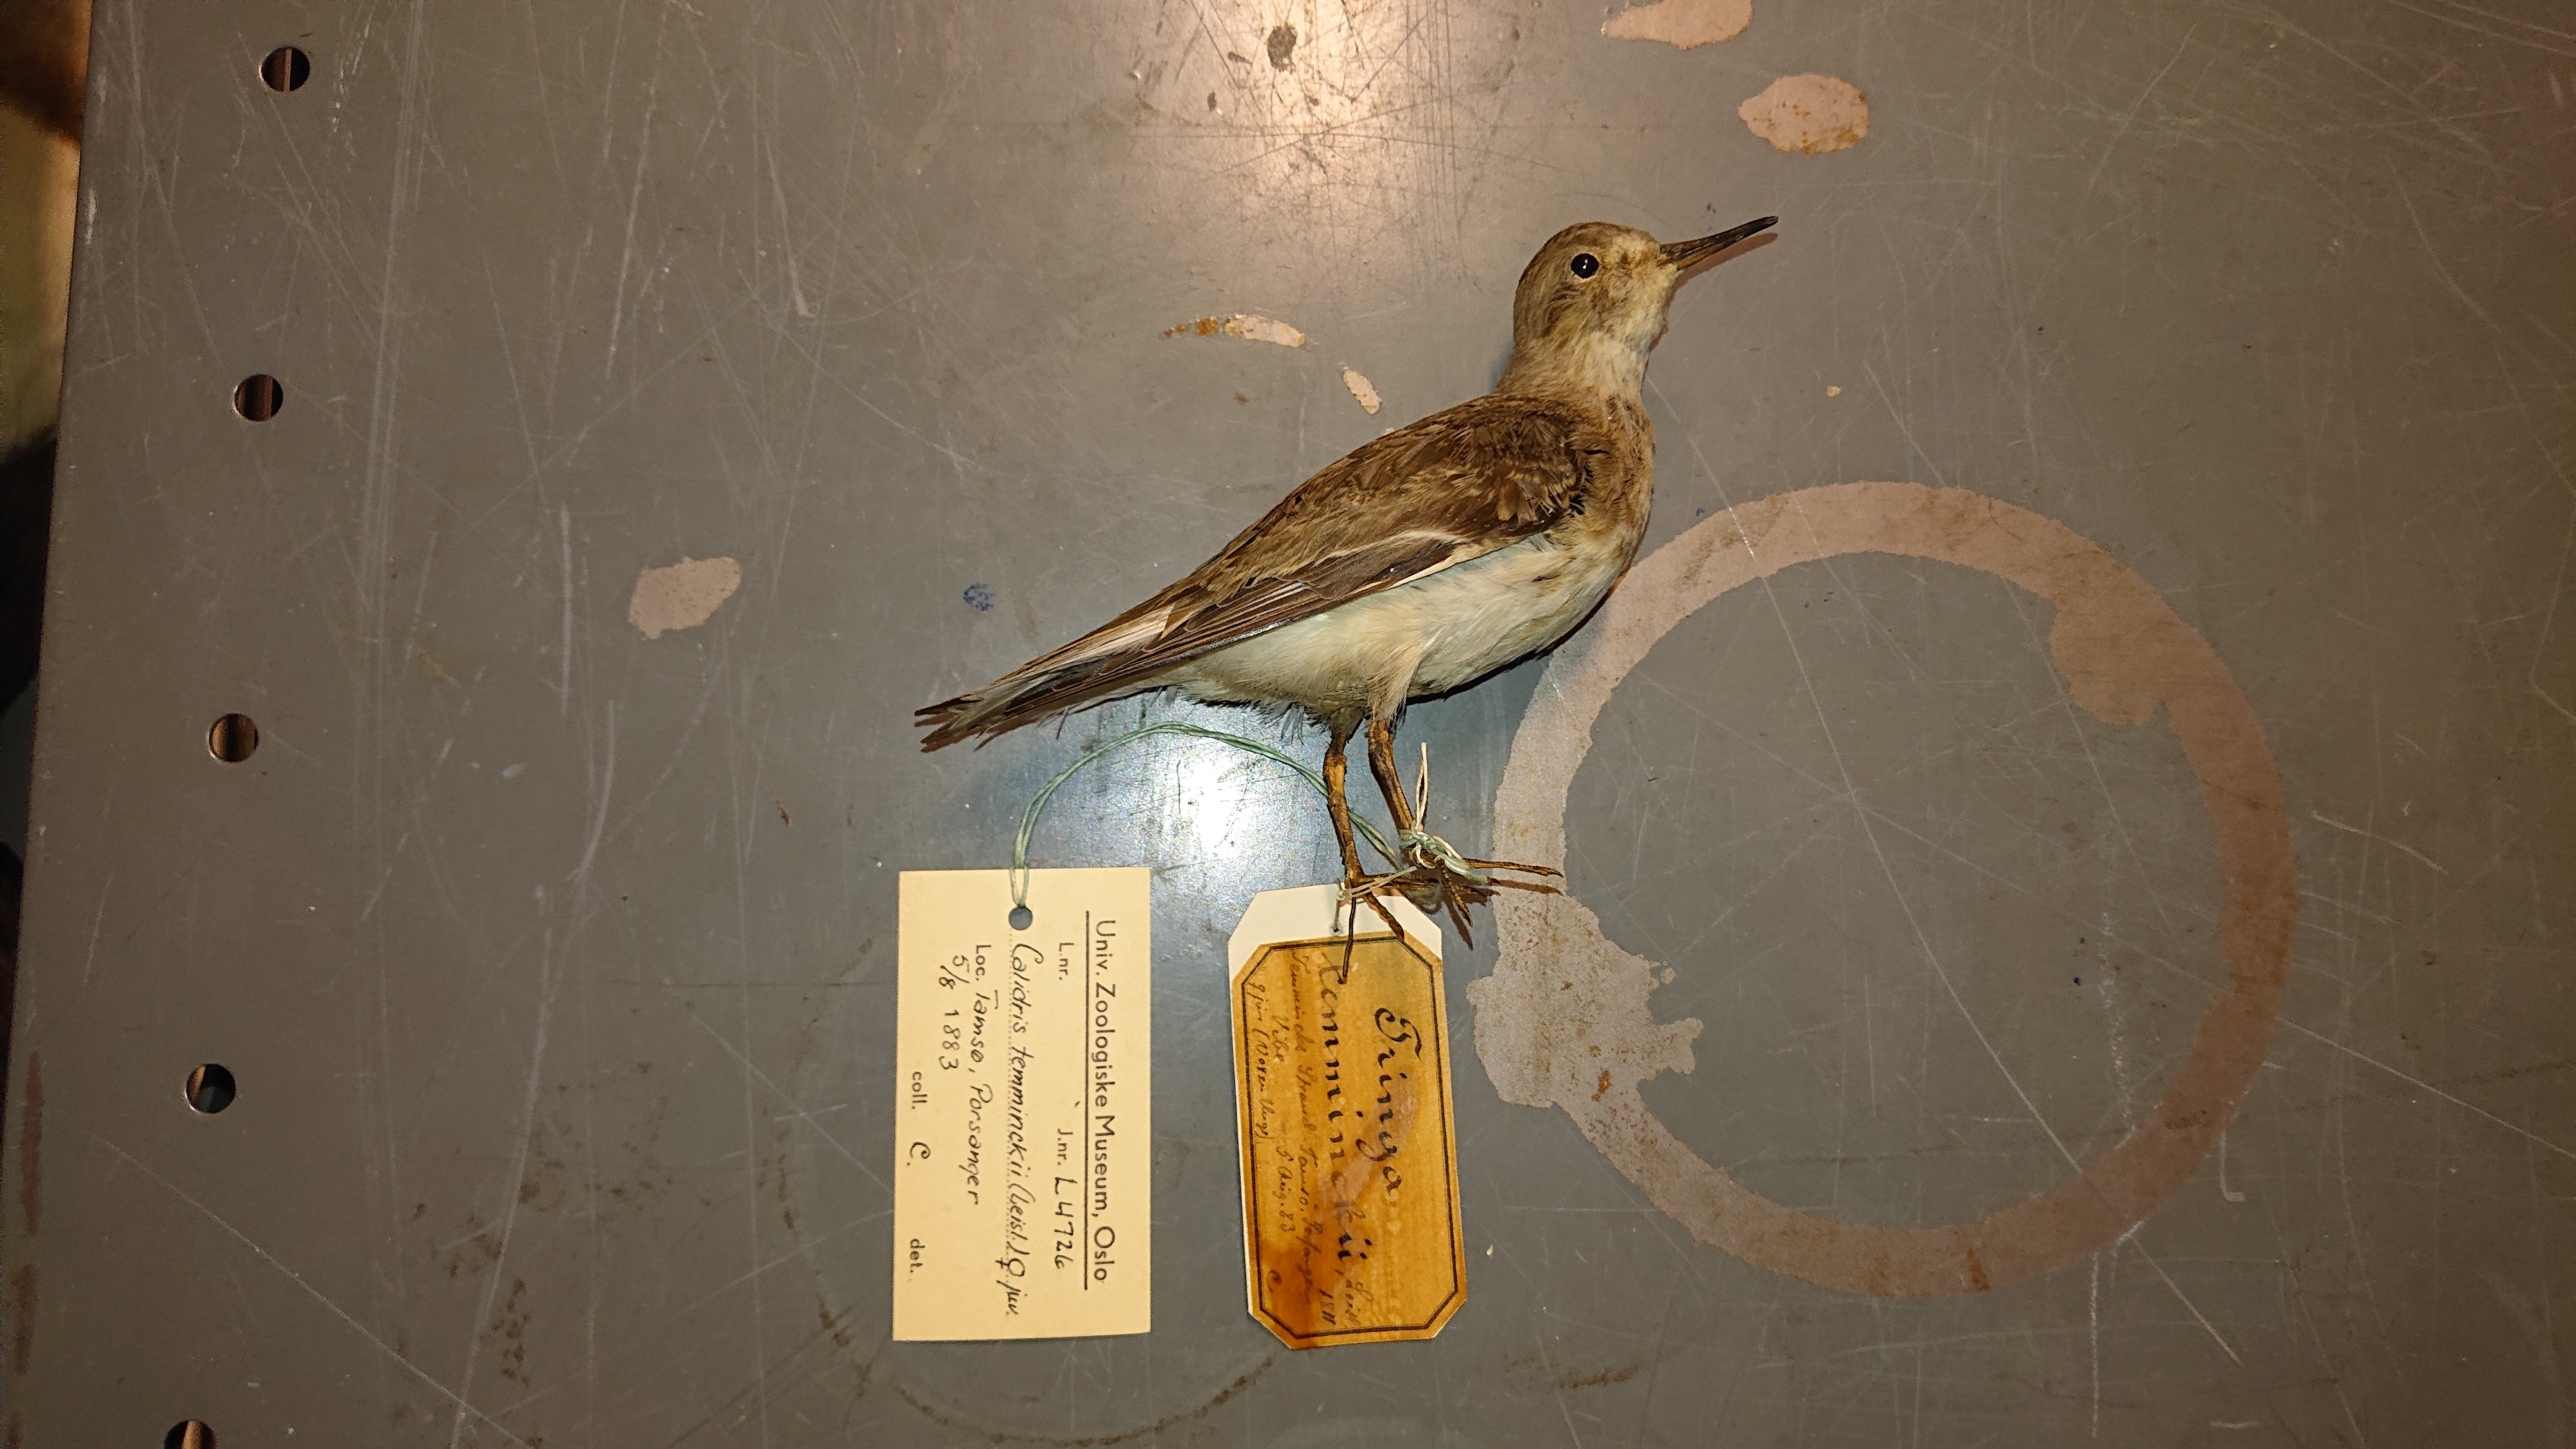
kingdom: Animalia
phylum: Chordata
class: Aves
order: Charadriiformes
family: Scolopacidae
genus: Calidris
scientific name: Calidris temminckii
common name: Temminck's stint
